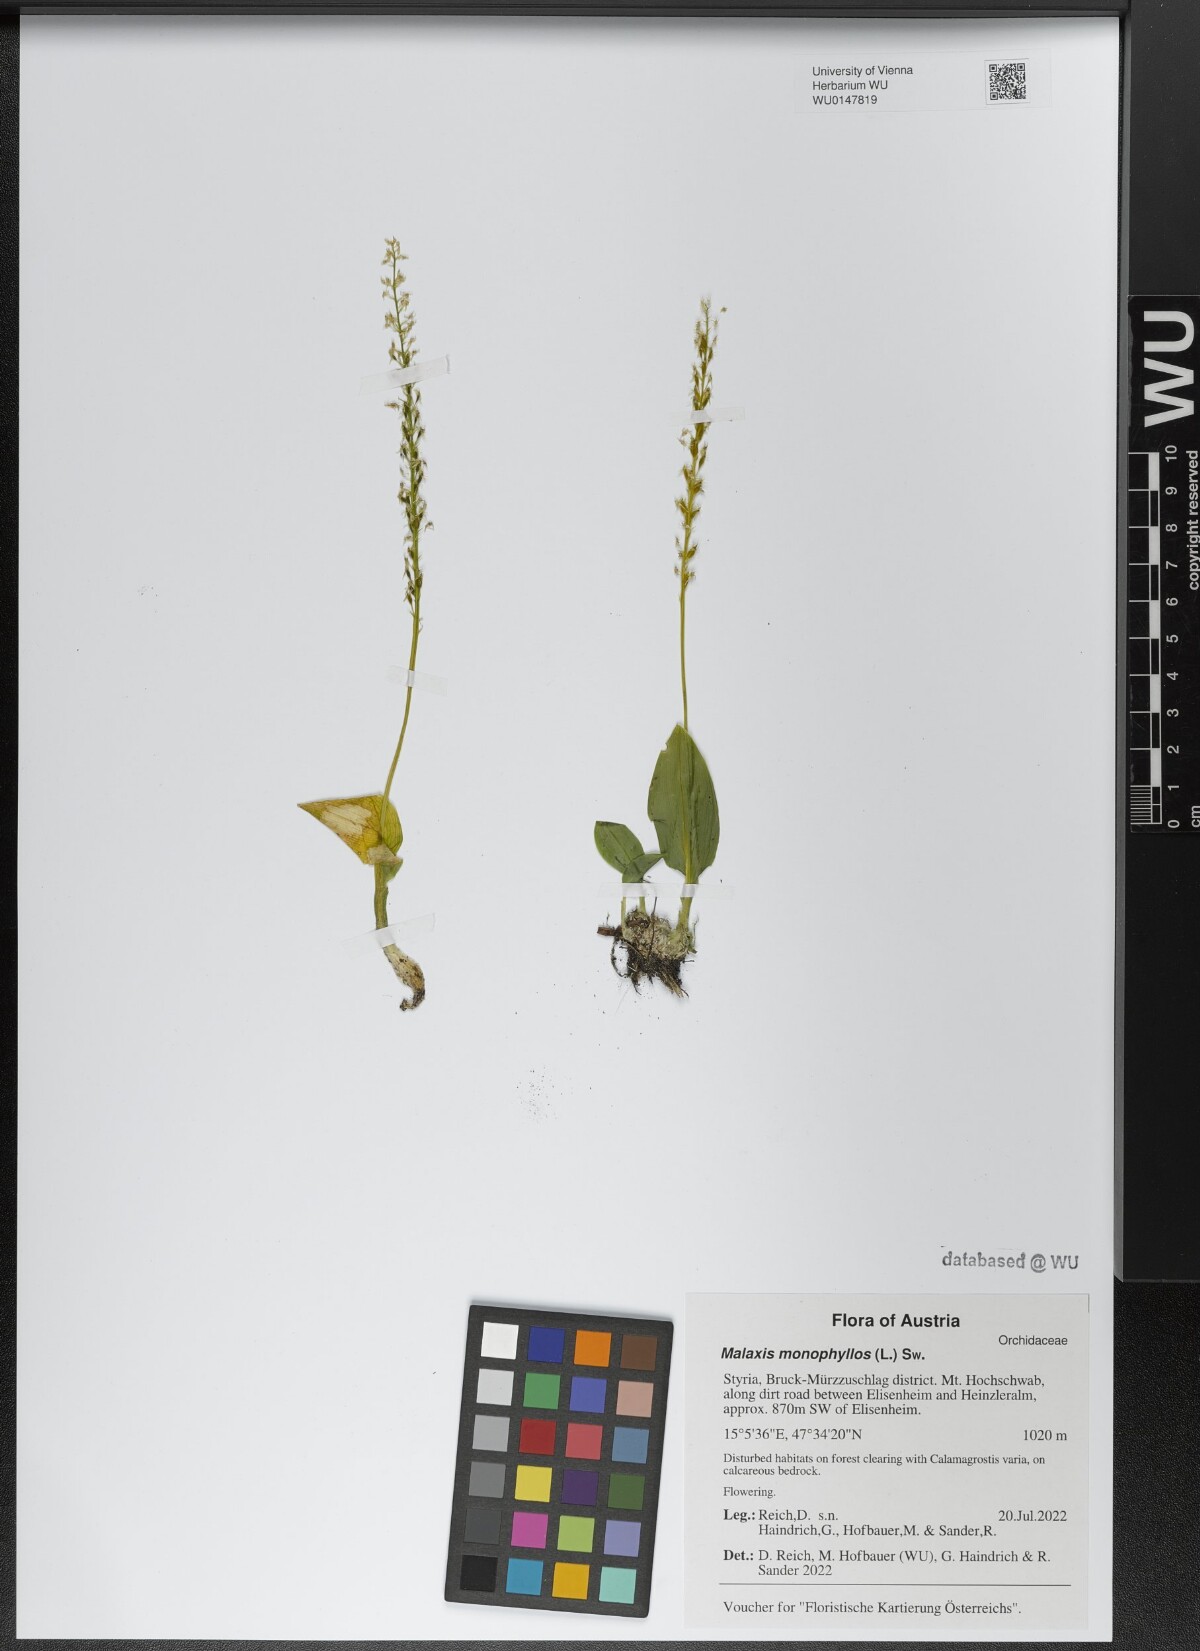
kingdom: Plantae
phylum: Tracheophyta
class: Liliopsida
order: Asparagales
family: Orchidaceae
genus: Malaxis
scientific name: Malaxis monophyllos
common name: White adder's-mouth
